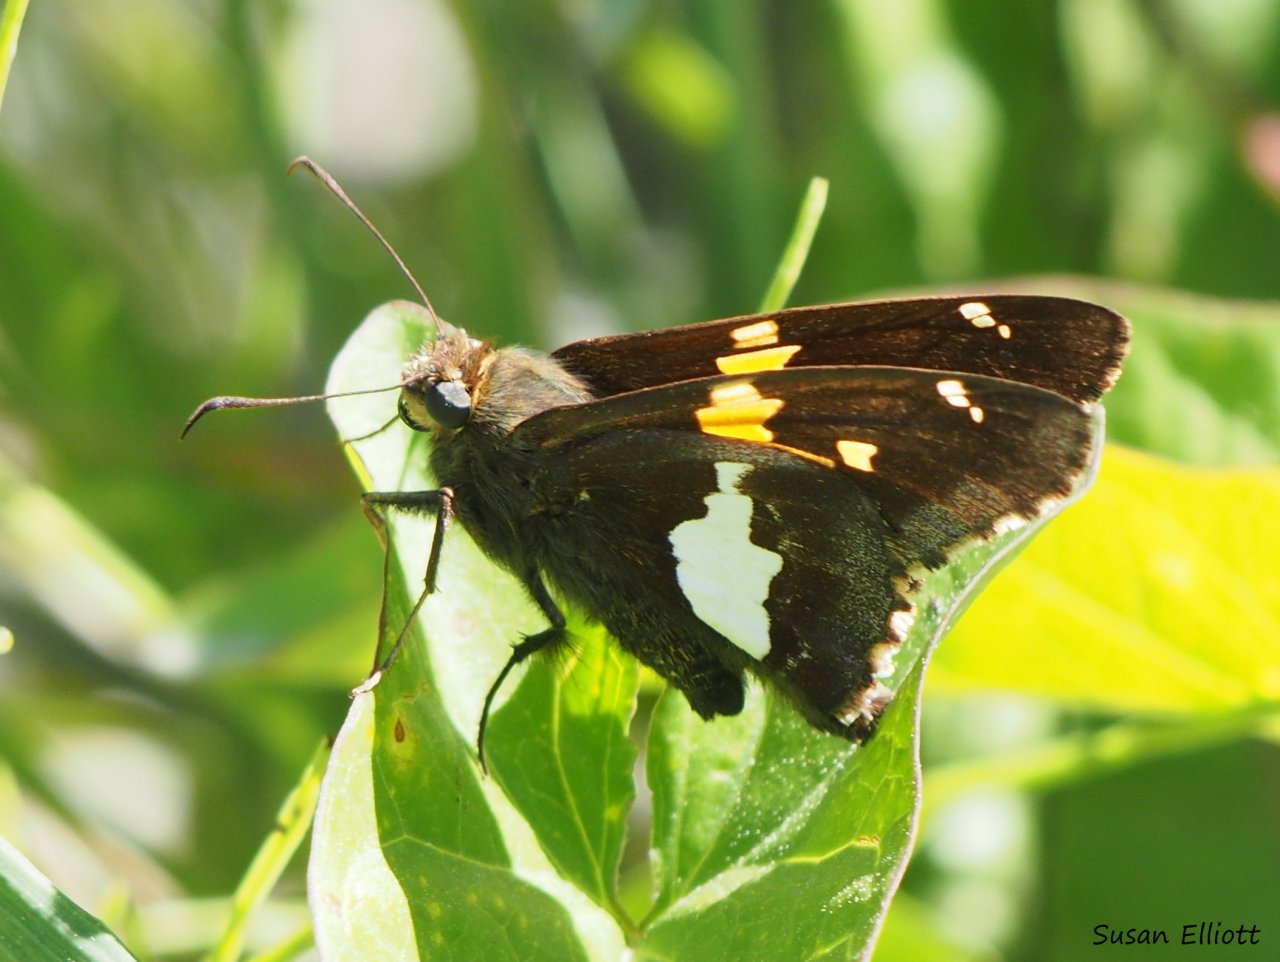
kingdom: Animalia
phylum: Arthropoda
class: Insecta
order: Lepidoptera
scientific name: Lepidoptera
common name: Butterflies
